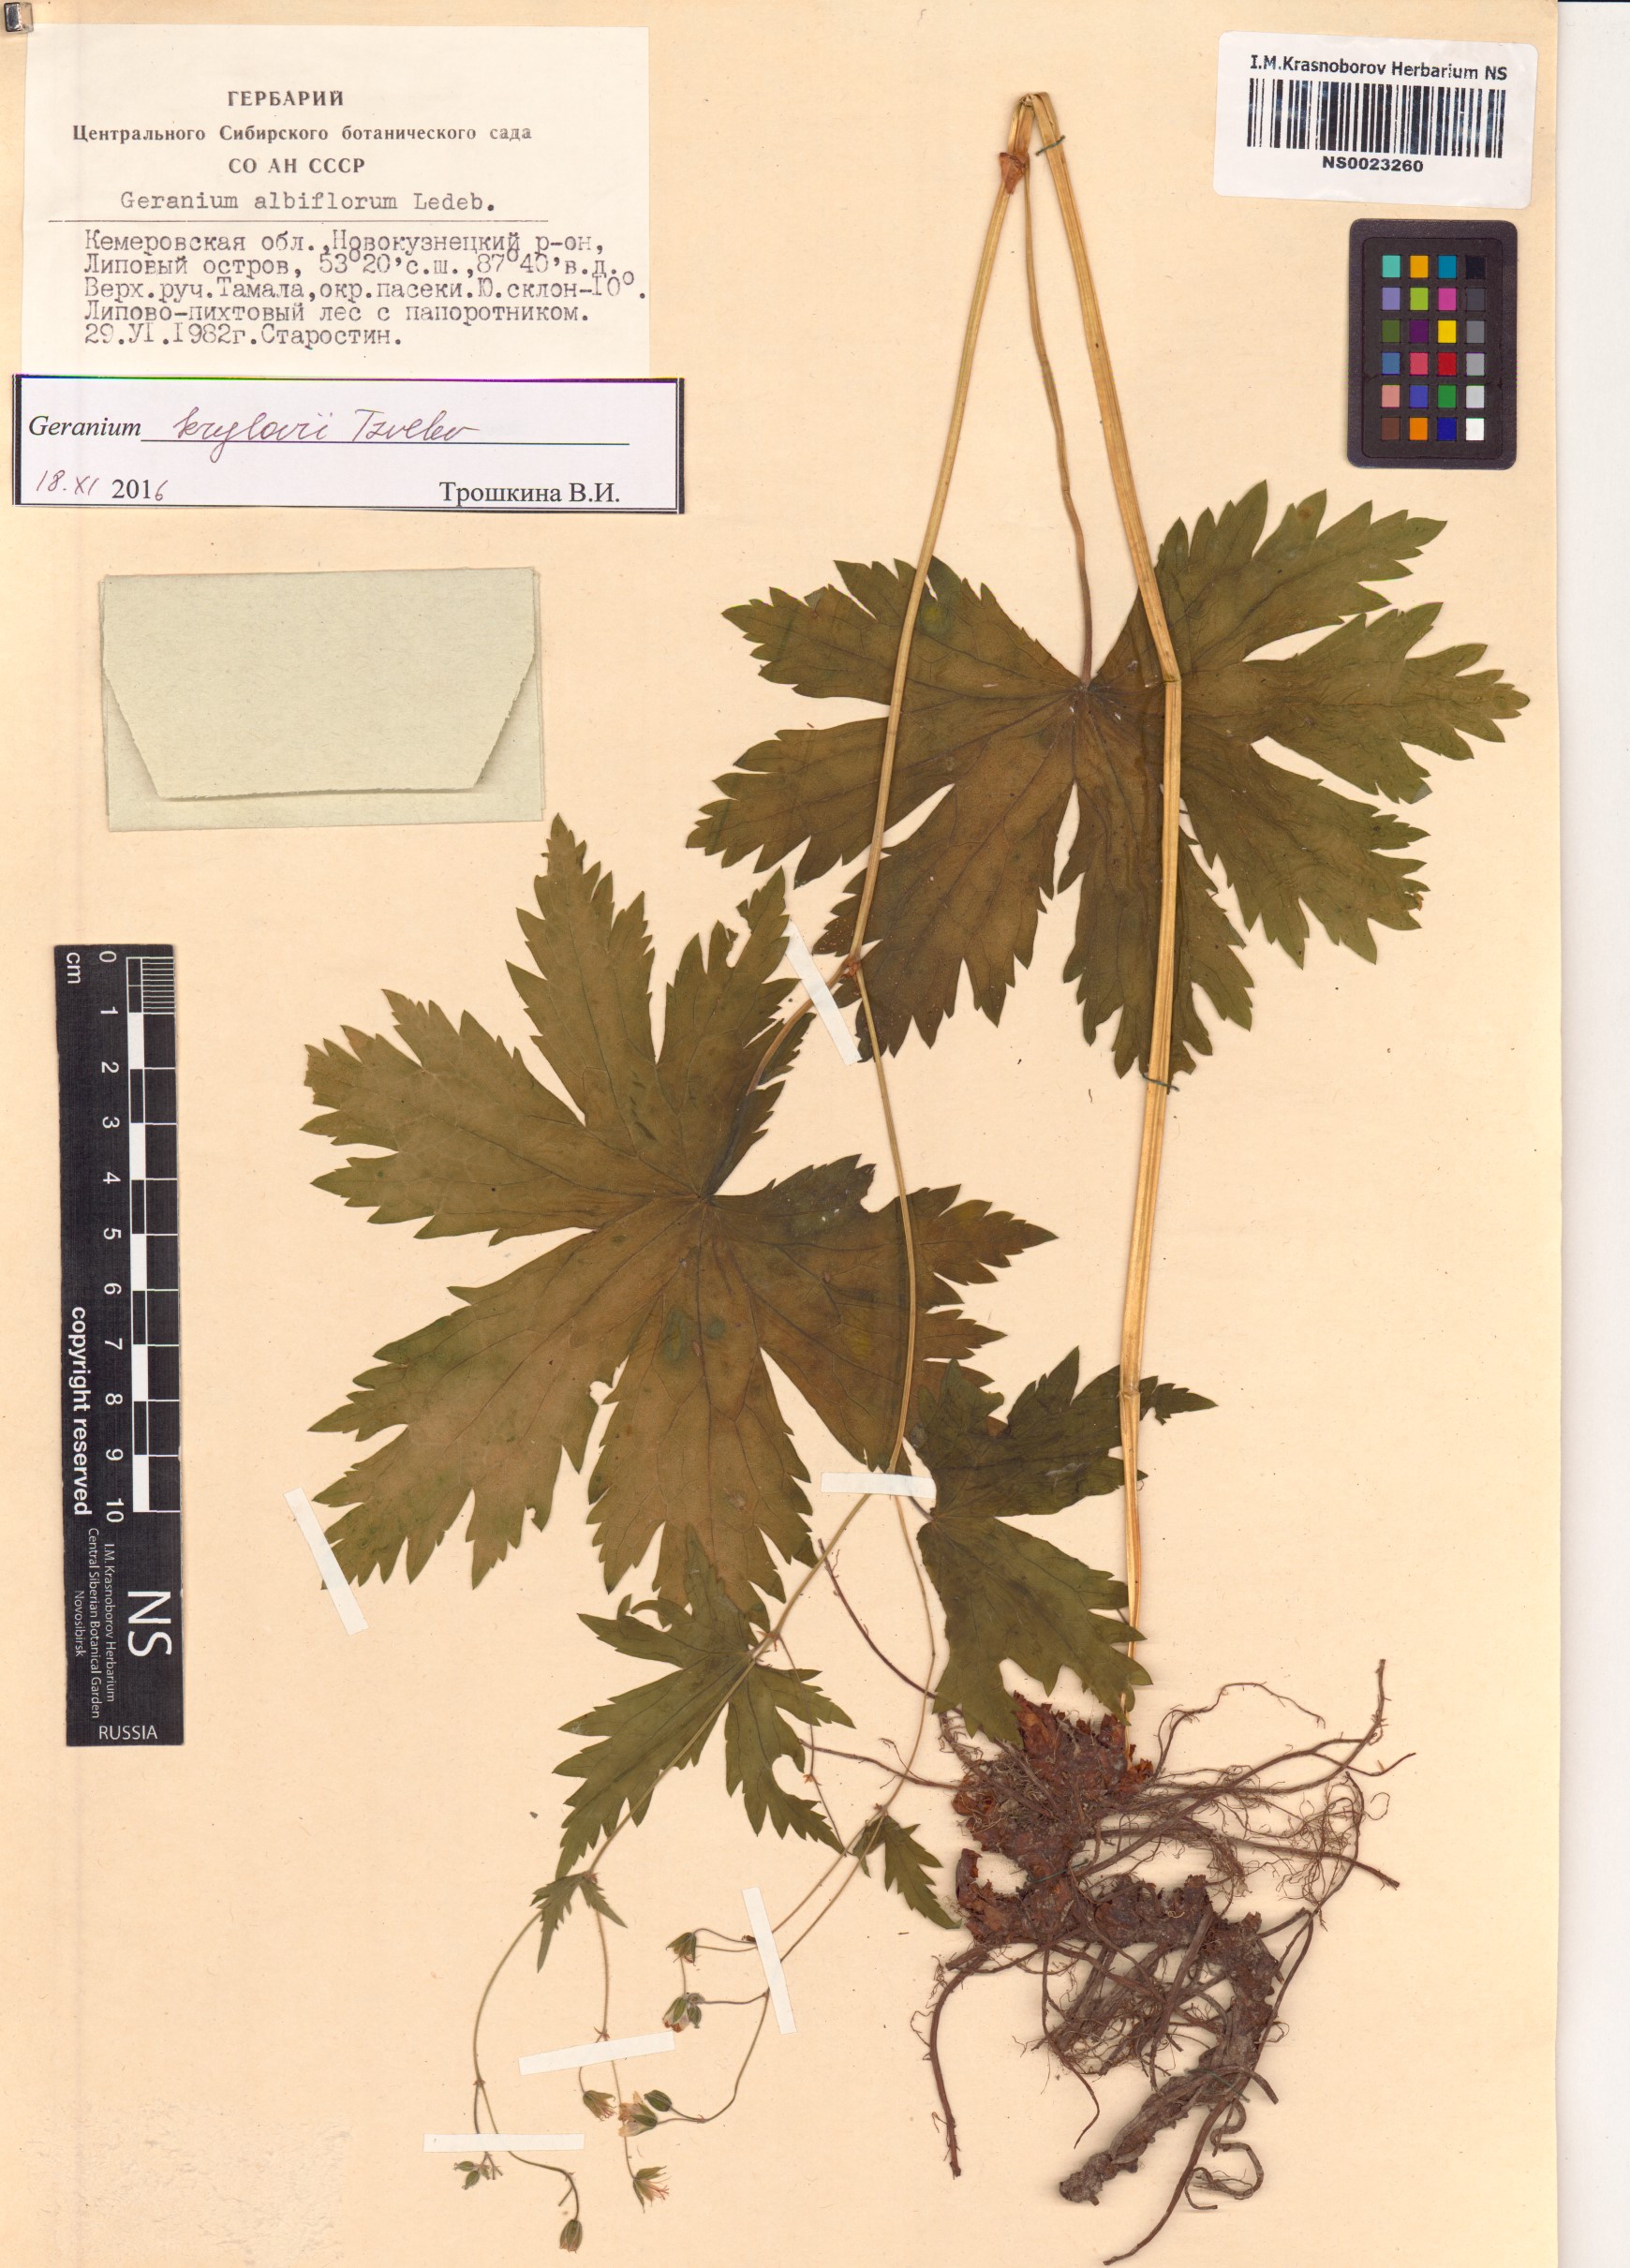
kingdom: Plantae
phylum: Tracheophyta
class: Magnoliopsida
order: Geraniales
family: Geraniaceae
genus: Geranium
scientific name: Geranium sylvaticum
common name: Wood crane's-bill
